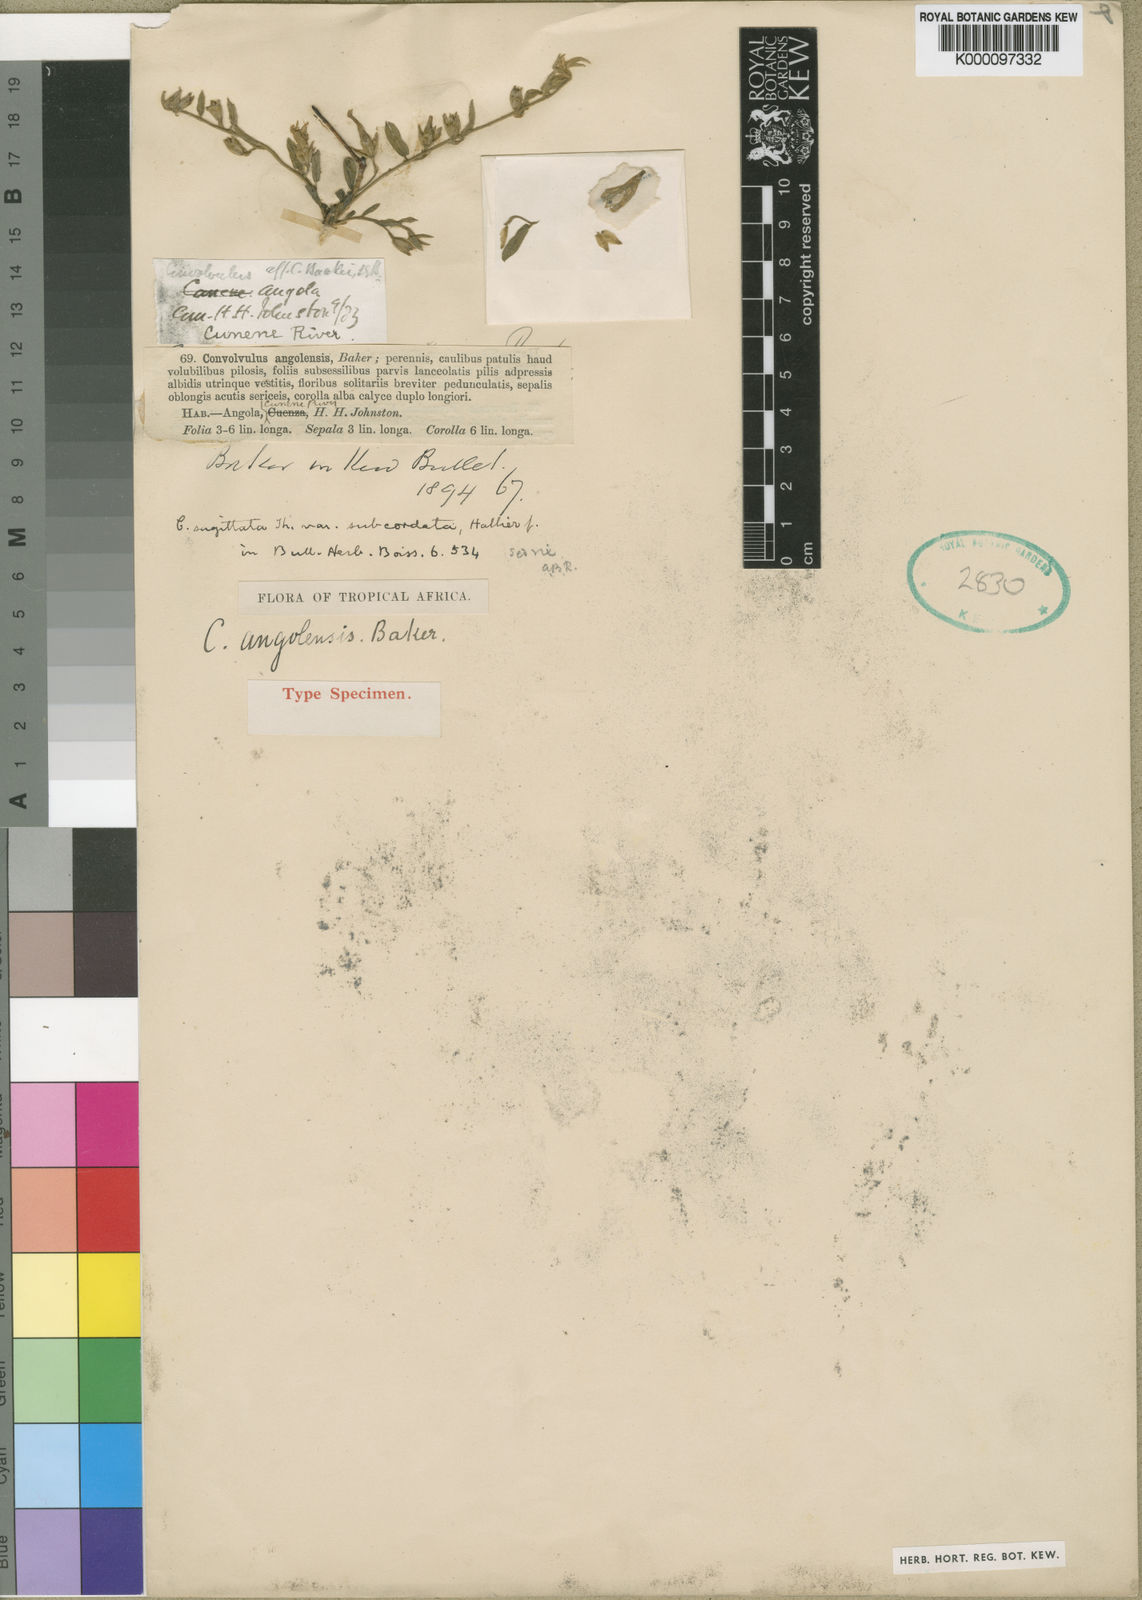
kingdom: Plantae
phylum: Tracheophyta
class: Magnoliopsida
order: Solanales
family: Convolvulaceae
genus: Convolvulus
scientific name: Convolvulus sagittatus
